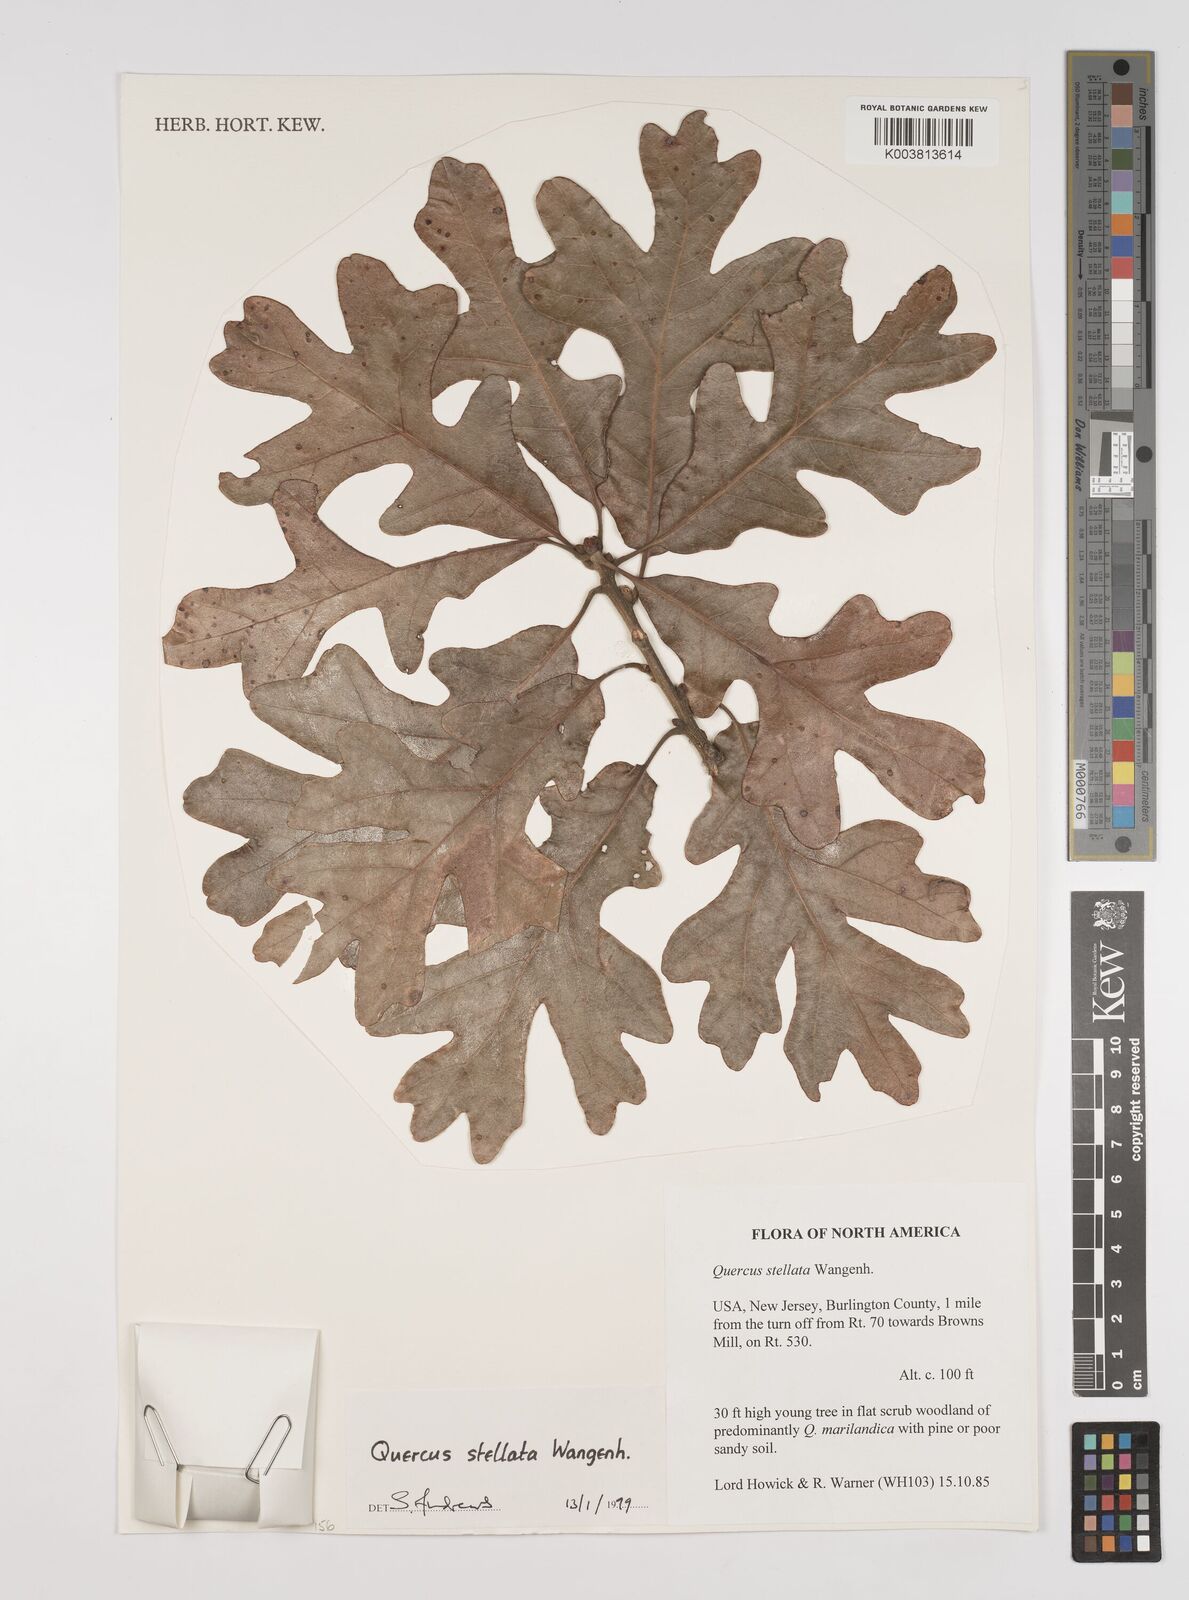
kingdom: Plantae
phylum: Tracheophyta
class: Magnoliopsida
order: Fagales
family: Fagaceae
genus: Quercus
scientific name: Quercus stellata
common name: Post oak
